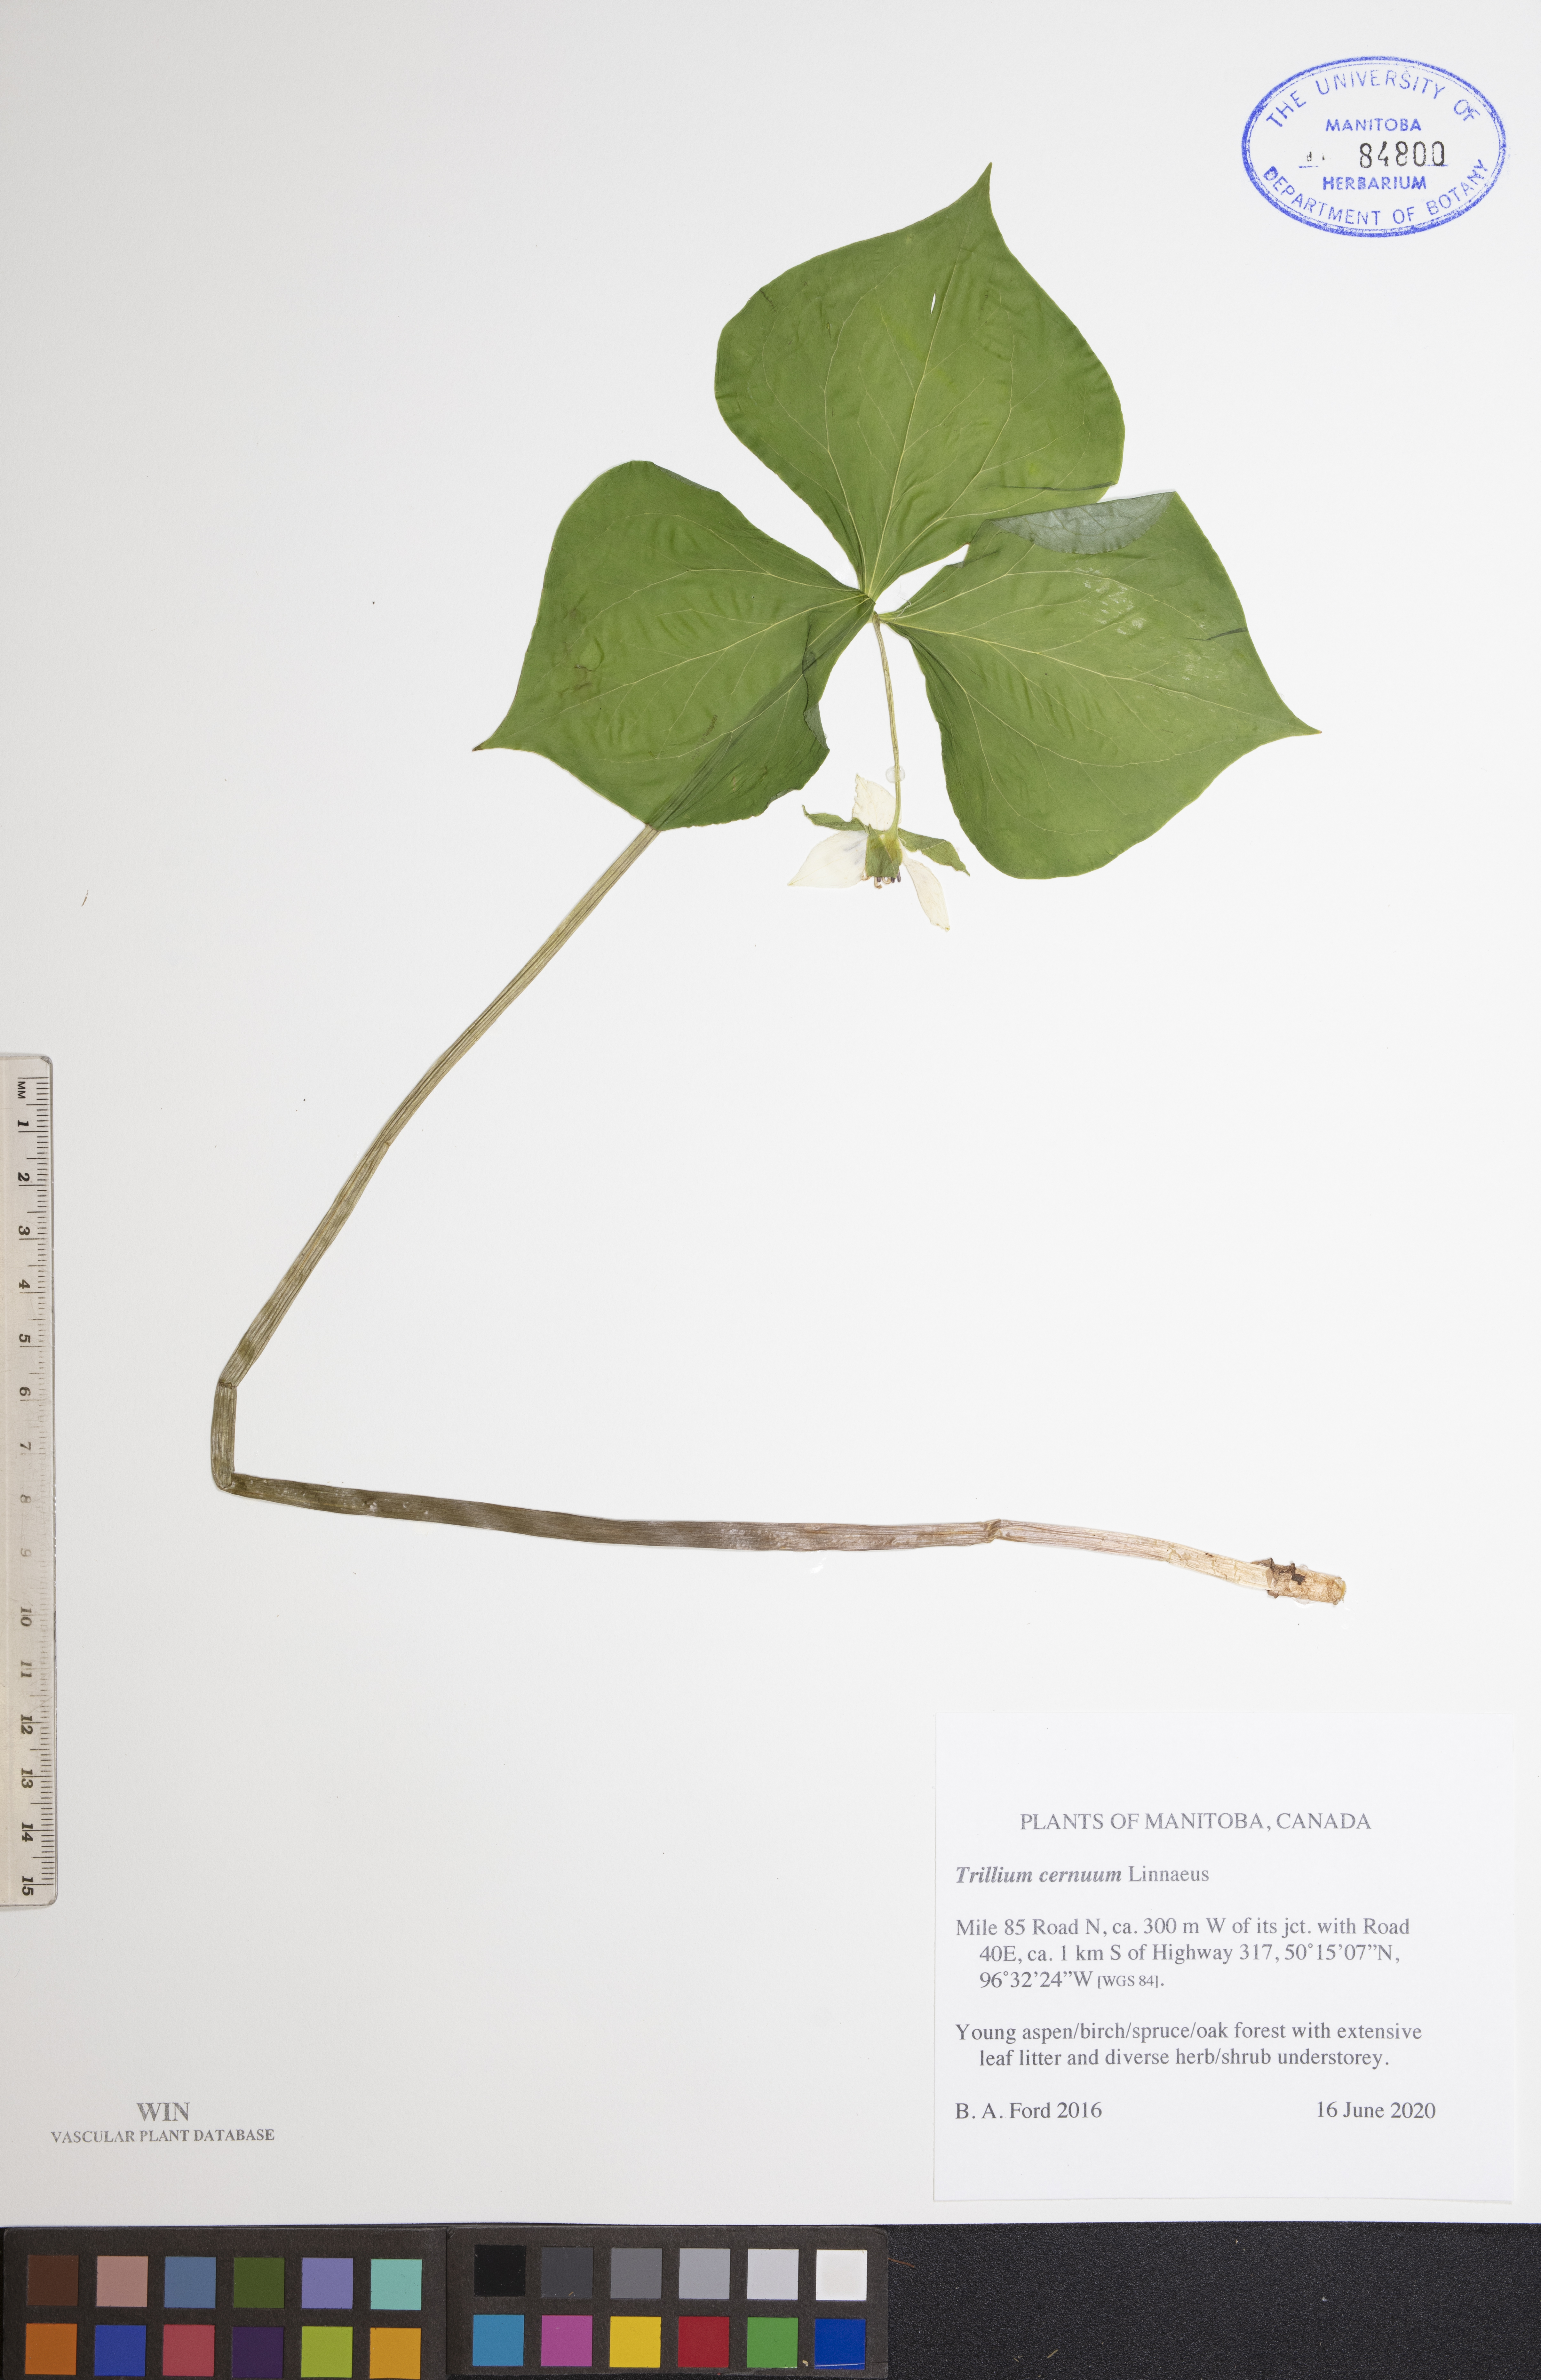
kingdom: Plantae
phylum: Tracheophyta
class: Liliopsida
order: Liliales
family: Melanthiaceae
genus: Trillium
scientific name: Trillium cernuum
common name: Nodding trillium
